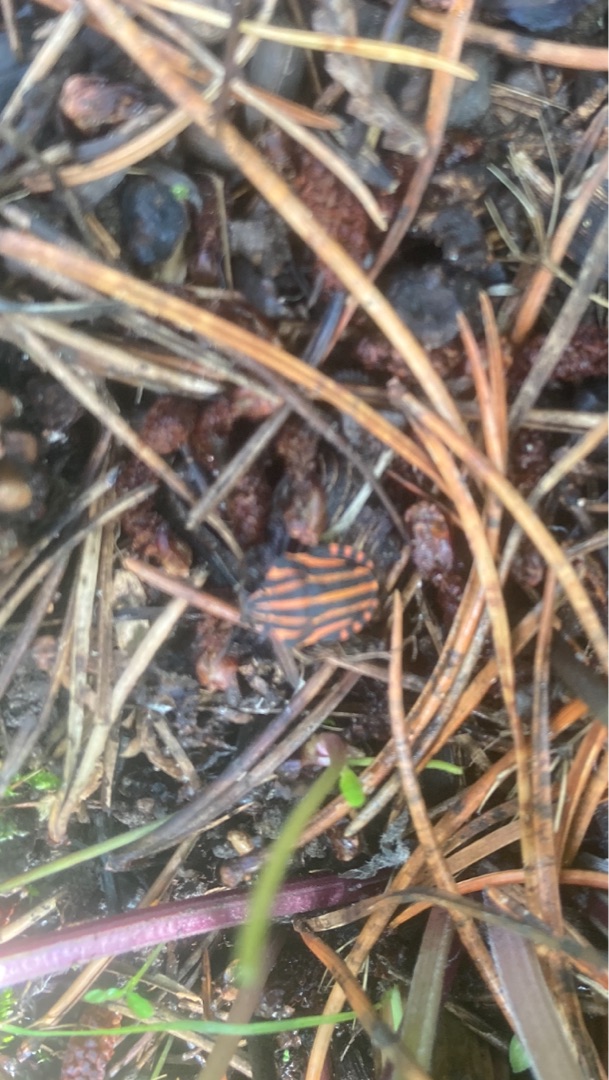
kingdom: Animalia
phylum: Arthropoda
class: Insecta
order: Hemiptera
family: Pentatomidae
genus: Graphosoma
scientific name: Graphosoma italicum
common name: Stribetæge
